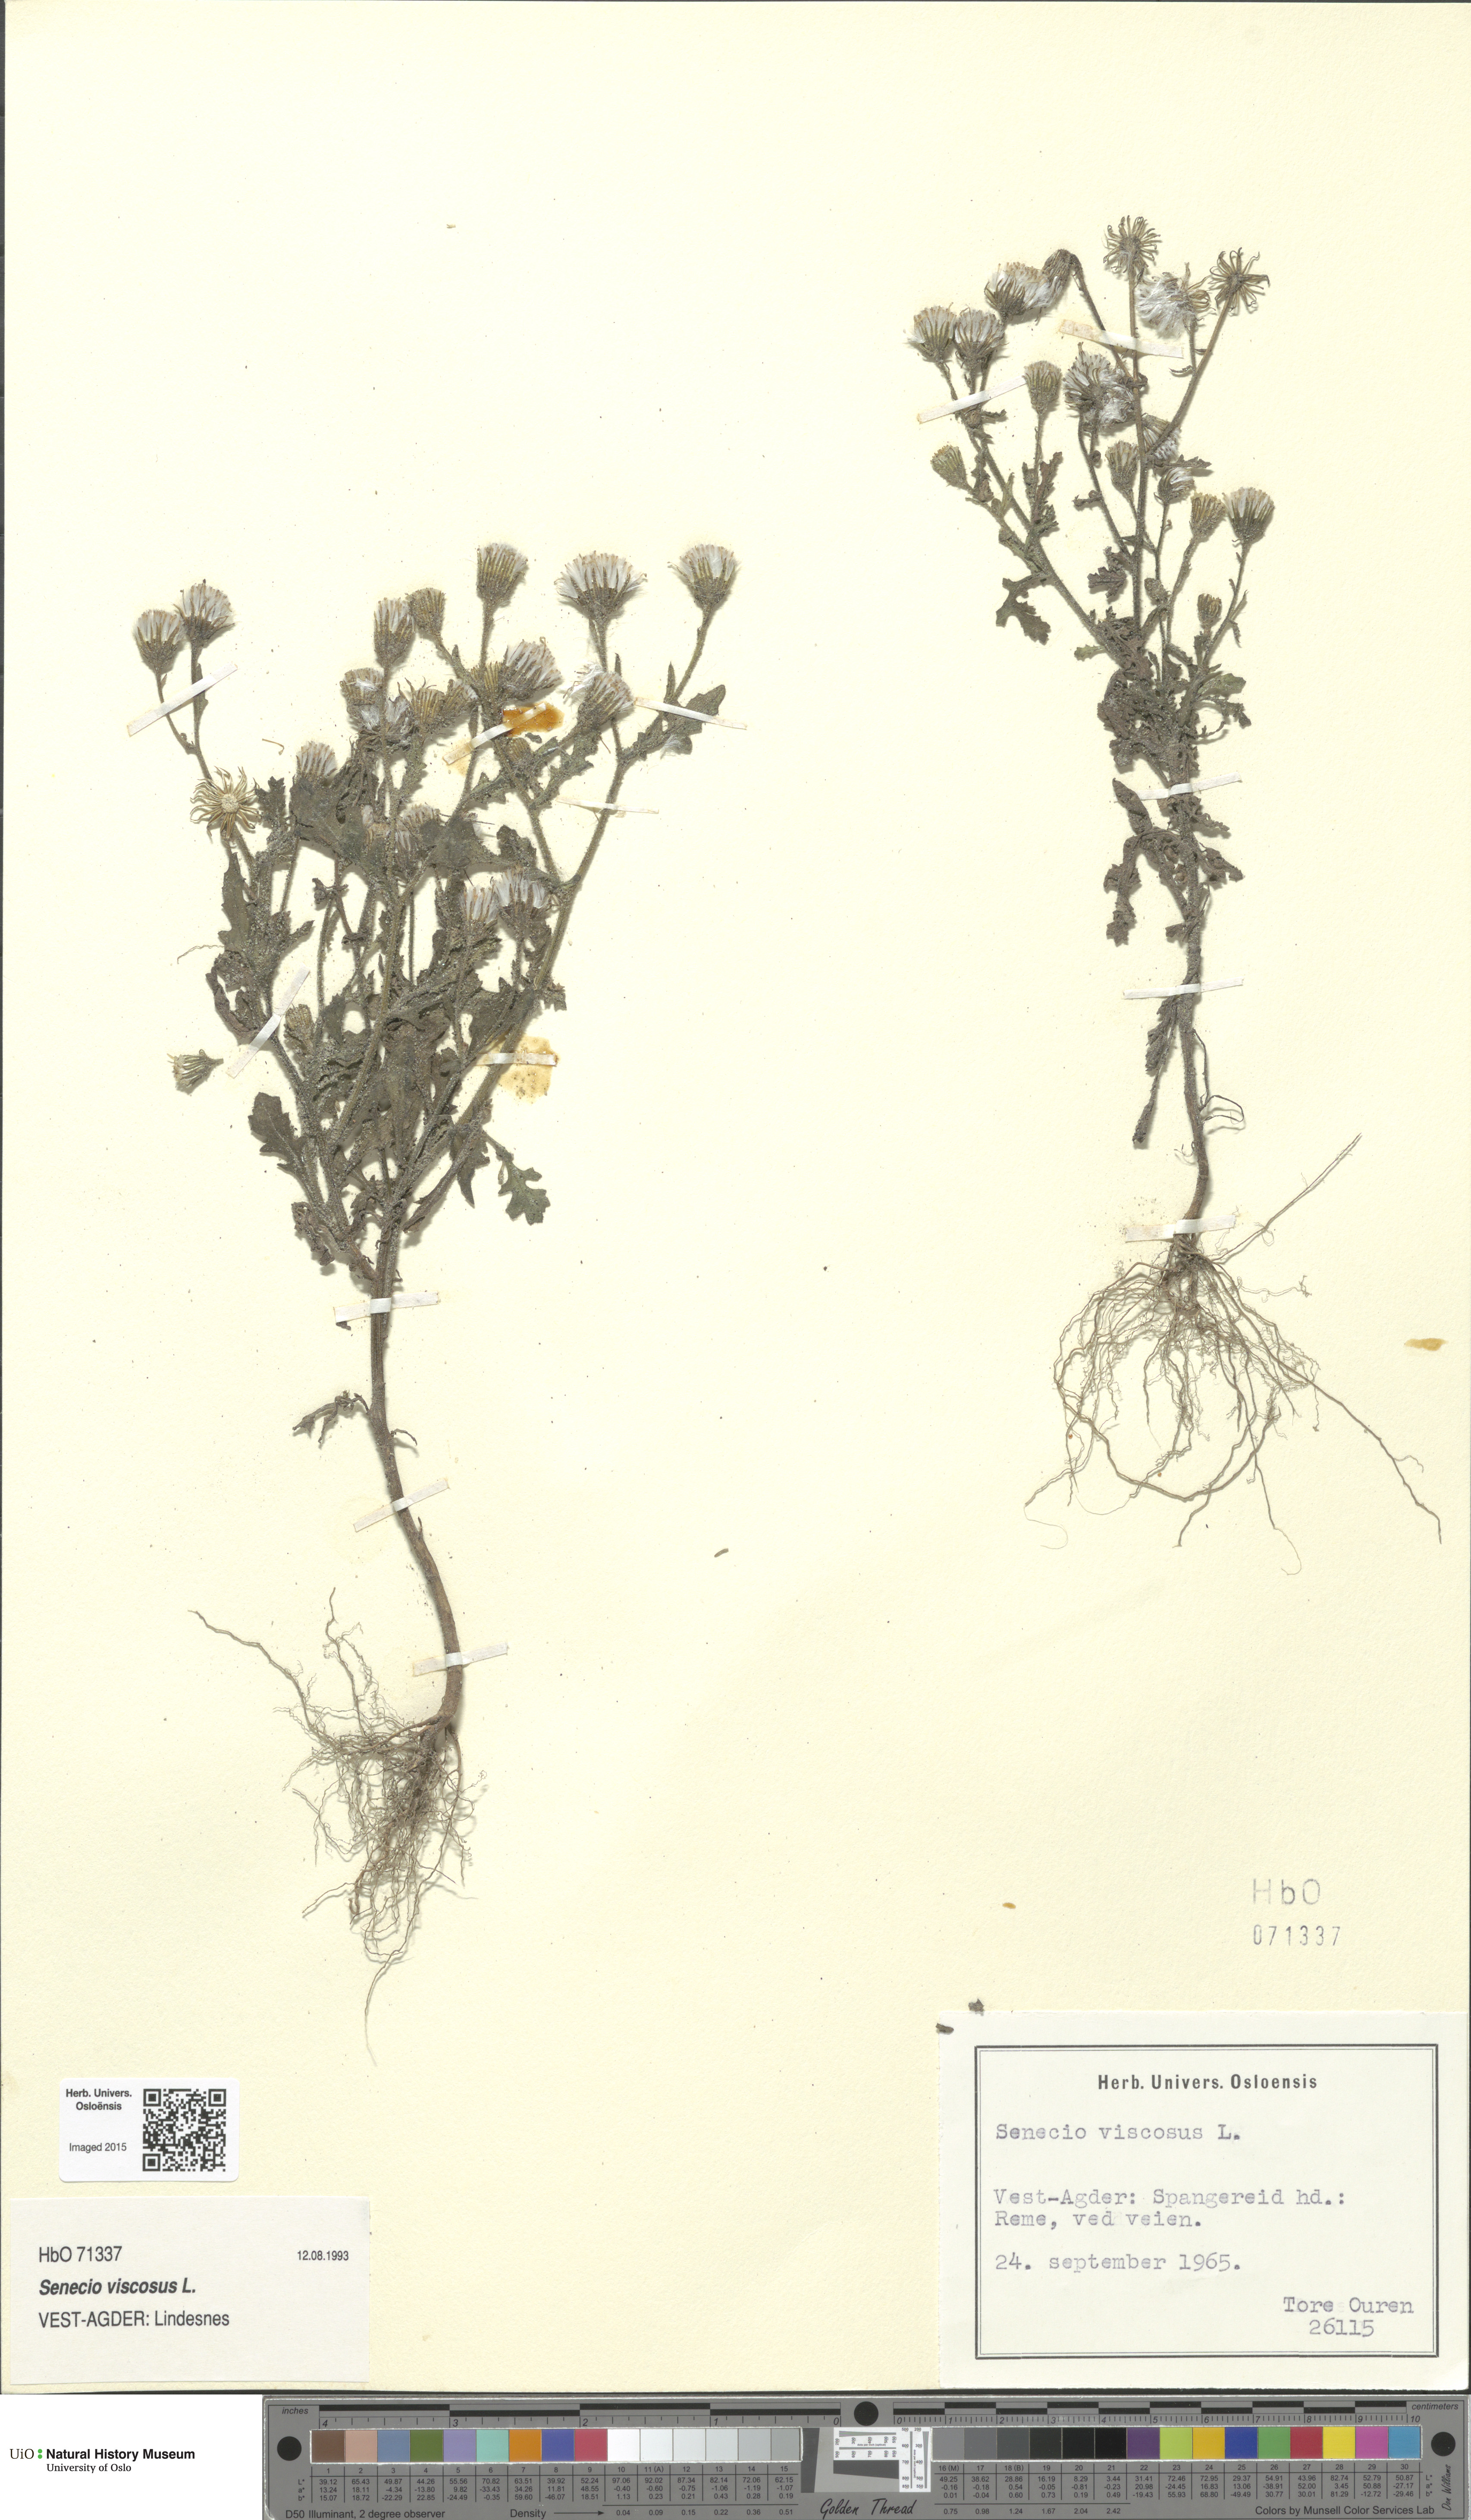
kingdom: Plantae
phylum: Tracheophyta
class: Magnoliopsida
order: Asterales
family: Asteraceae
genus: Senecio
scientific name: Senecio viscosus
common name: Sticky groundsel
